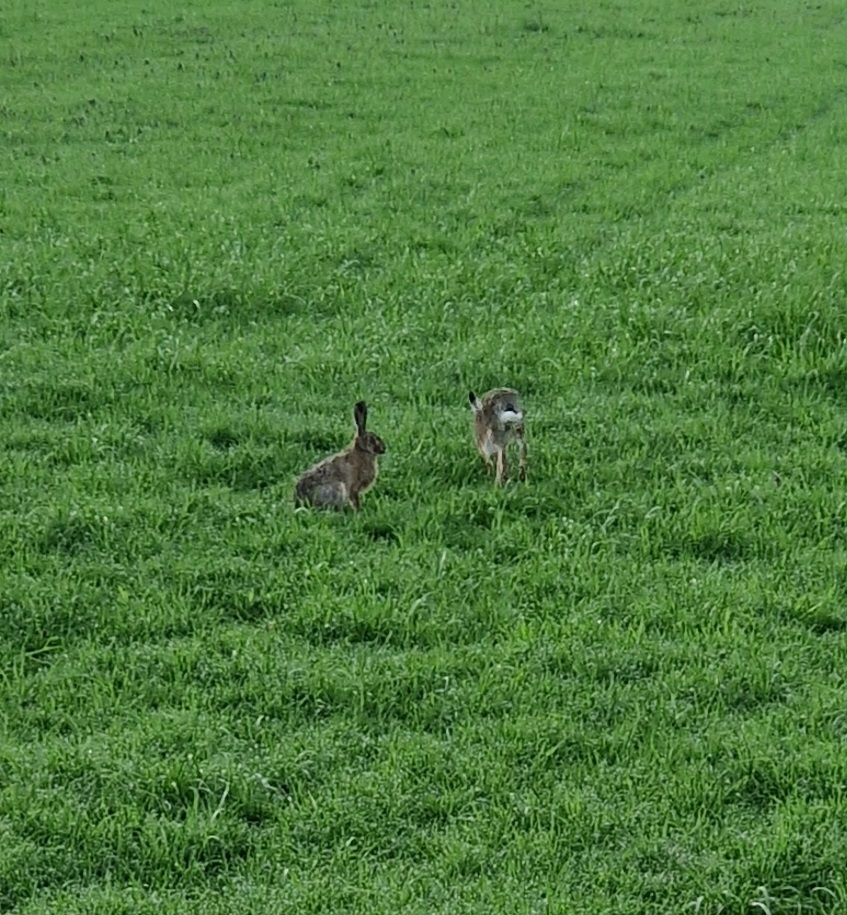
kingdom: Animalia
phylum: Chordata
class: Mammalia
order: Lagomorpha
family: Leporidae
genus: Lepus
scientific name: Lepus europaeus
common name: Hare
